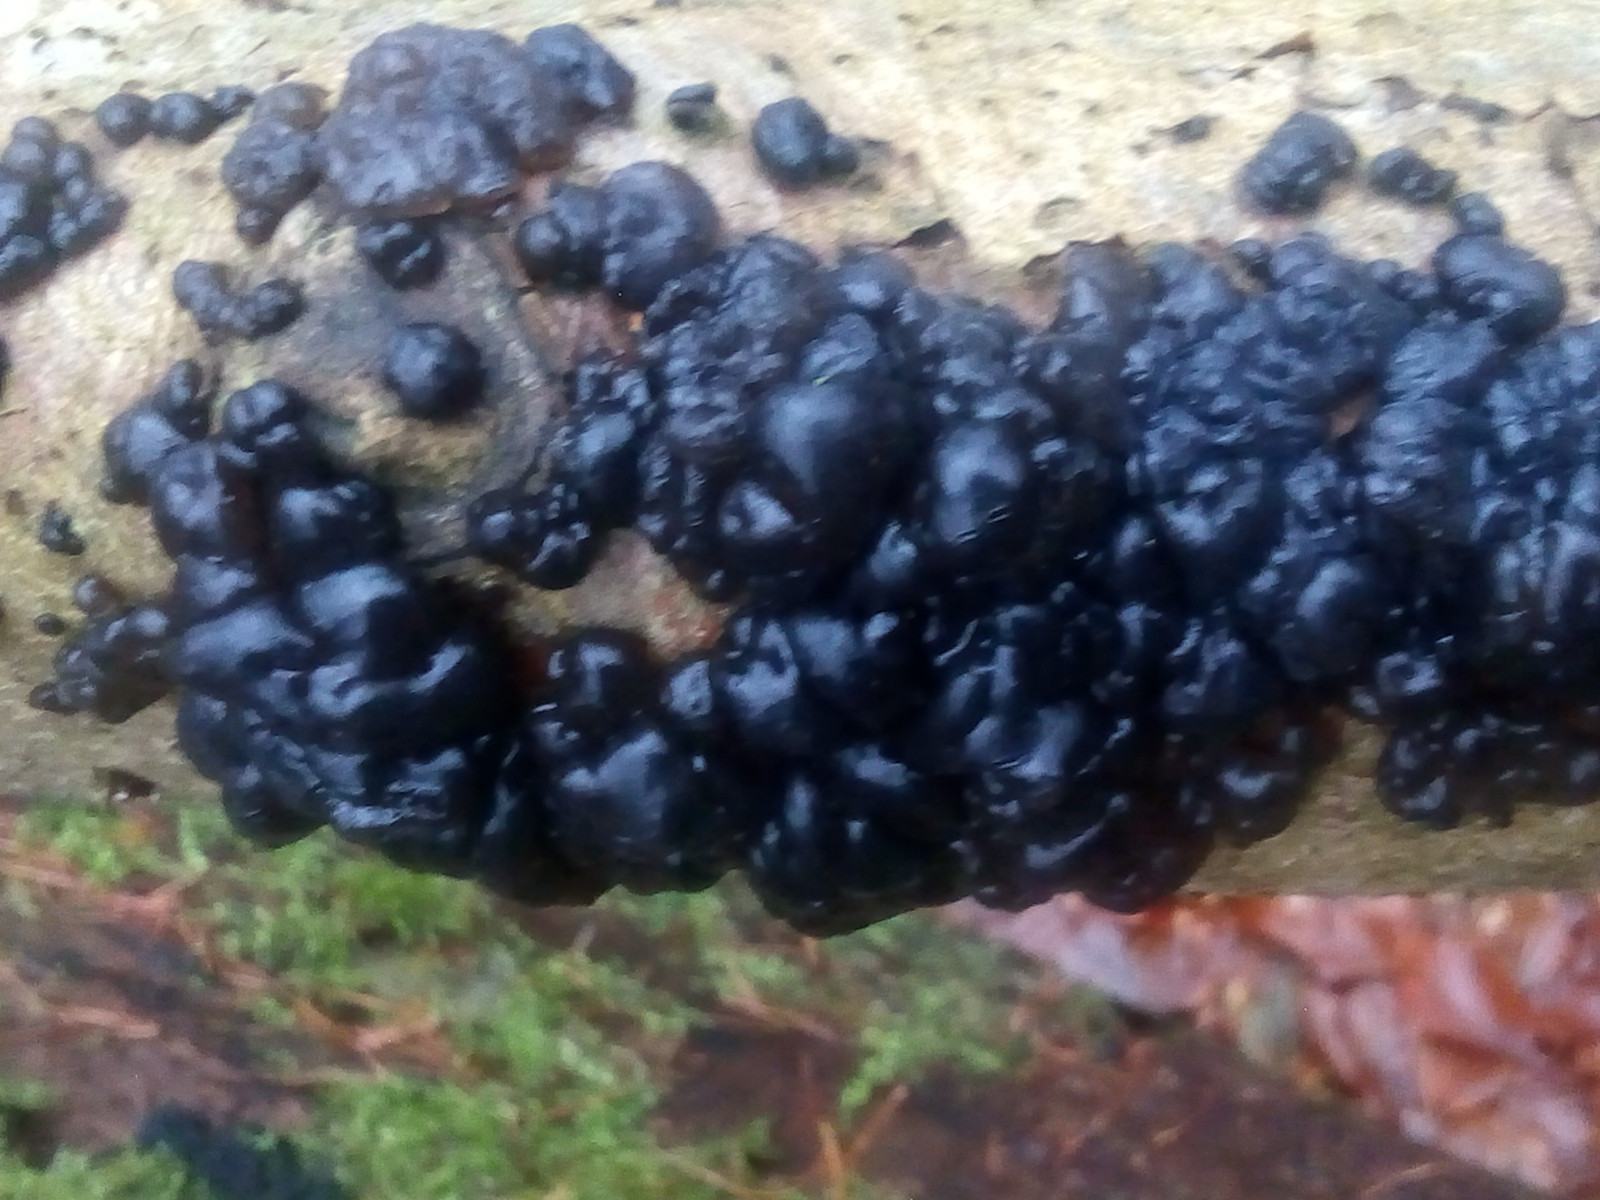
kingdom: Fungi
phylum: Basidiomycota
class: Agaricomycetes
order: Auriculariales
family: Auriculariaceae
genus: Exidia
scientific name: Exidia nigricans
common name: almindelig bævretop
